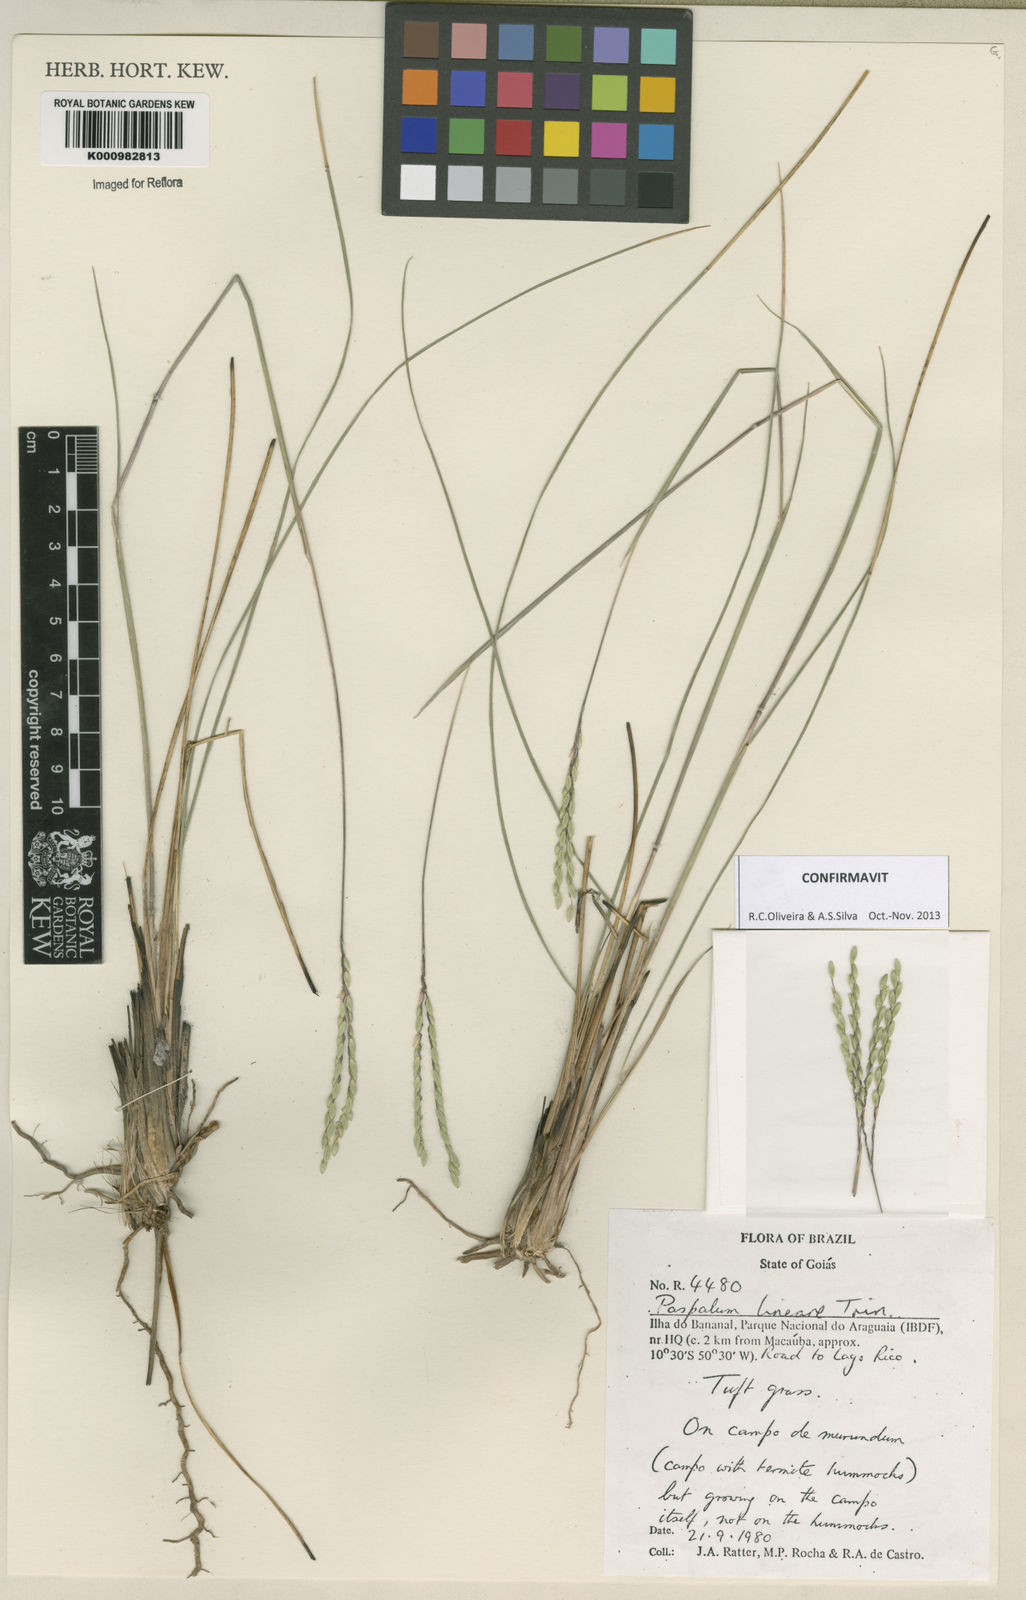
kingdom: Plantae
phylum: Tracheophyta
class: Liliopsida
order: Poales
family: Poaceae
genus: Paspalum
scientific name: Paspalum lineare
